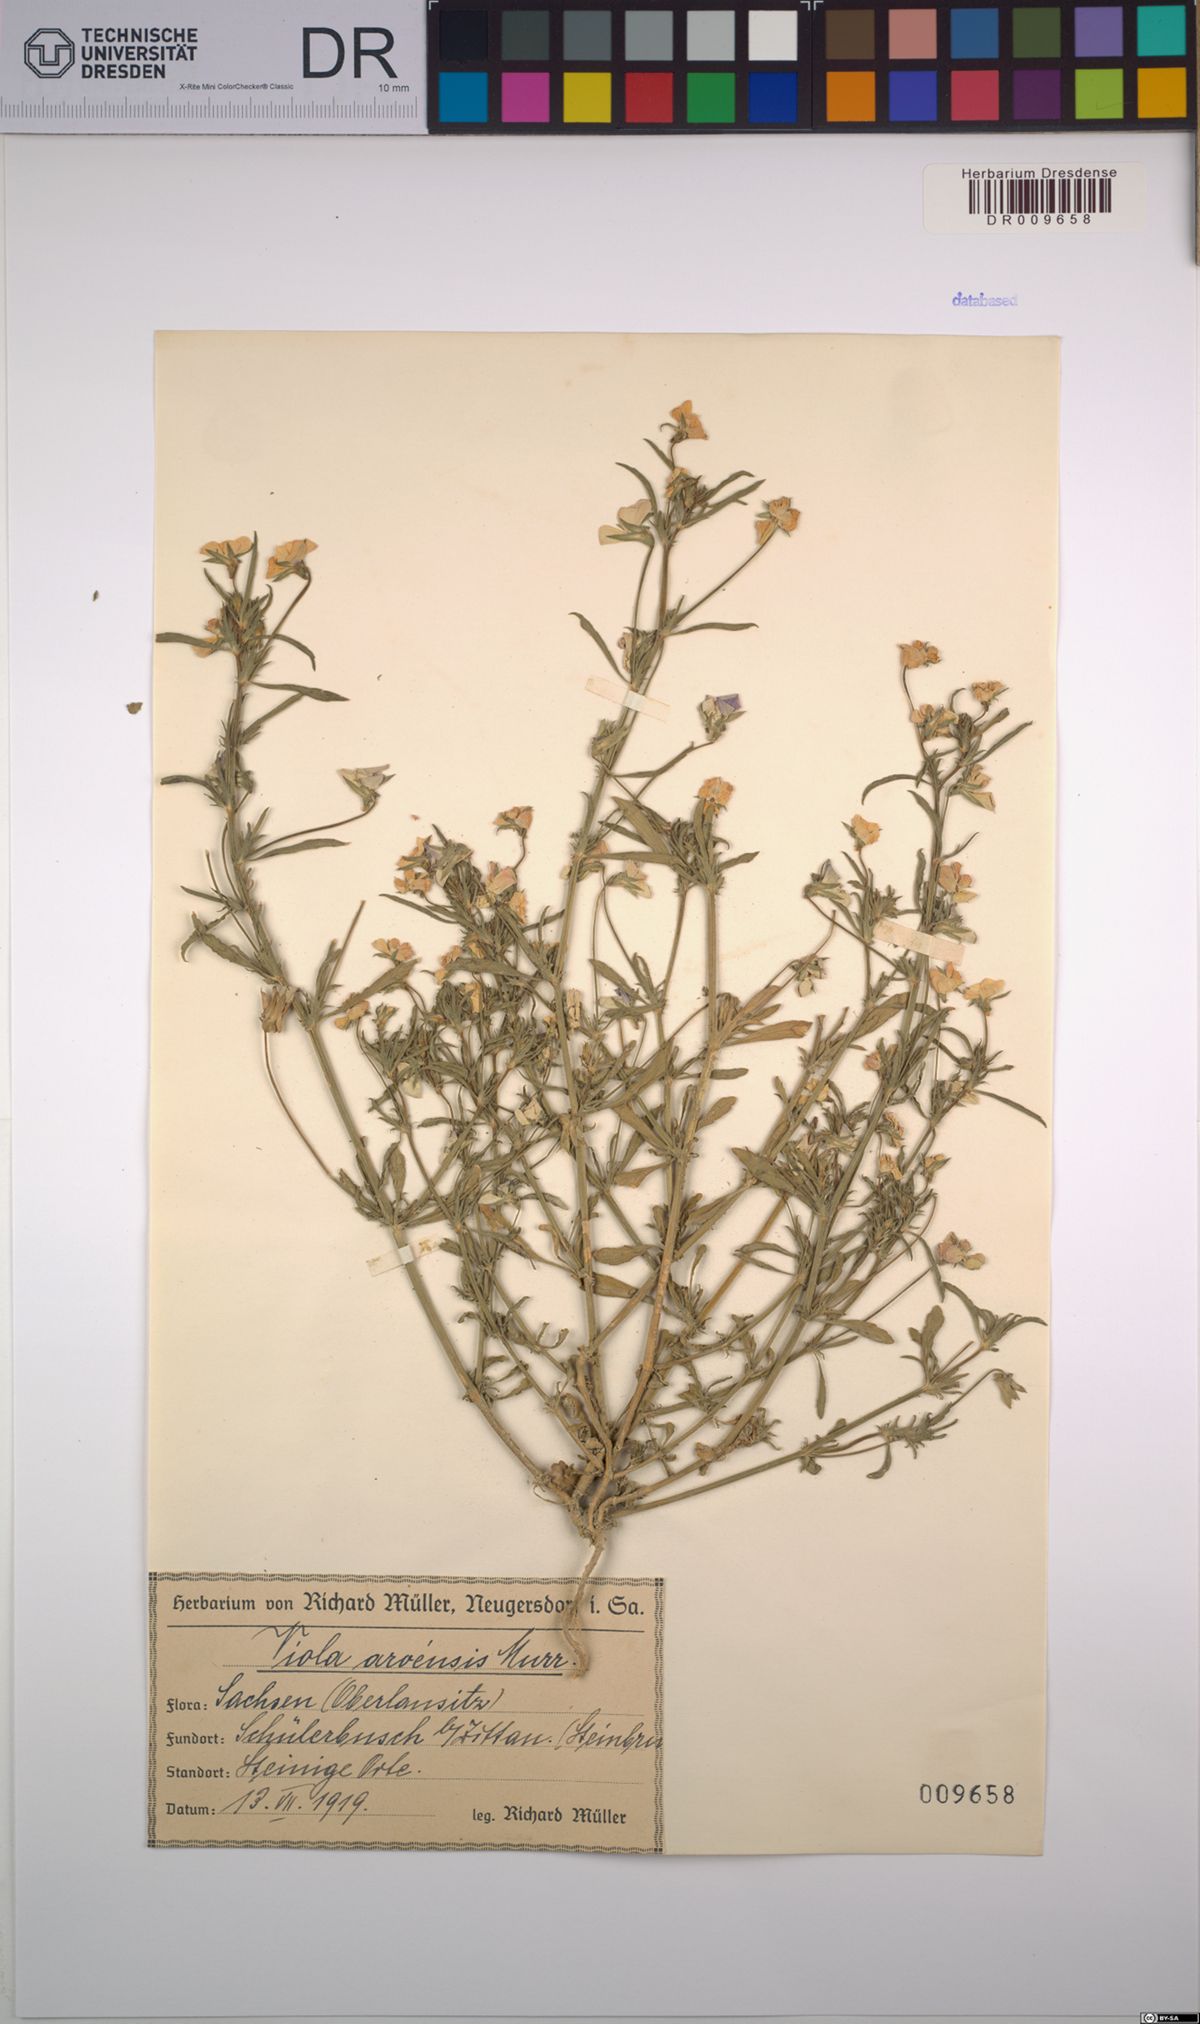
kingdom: Plantae
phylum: Tracheophyta
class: Magnoliopsida
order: Malpighiales
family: Violaceae
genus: Viola
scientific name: Viola arvensis
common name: Field pansy
